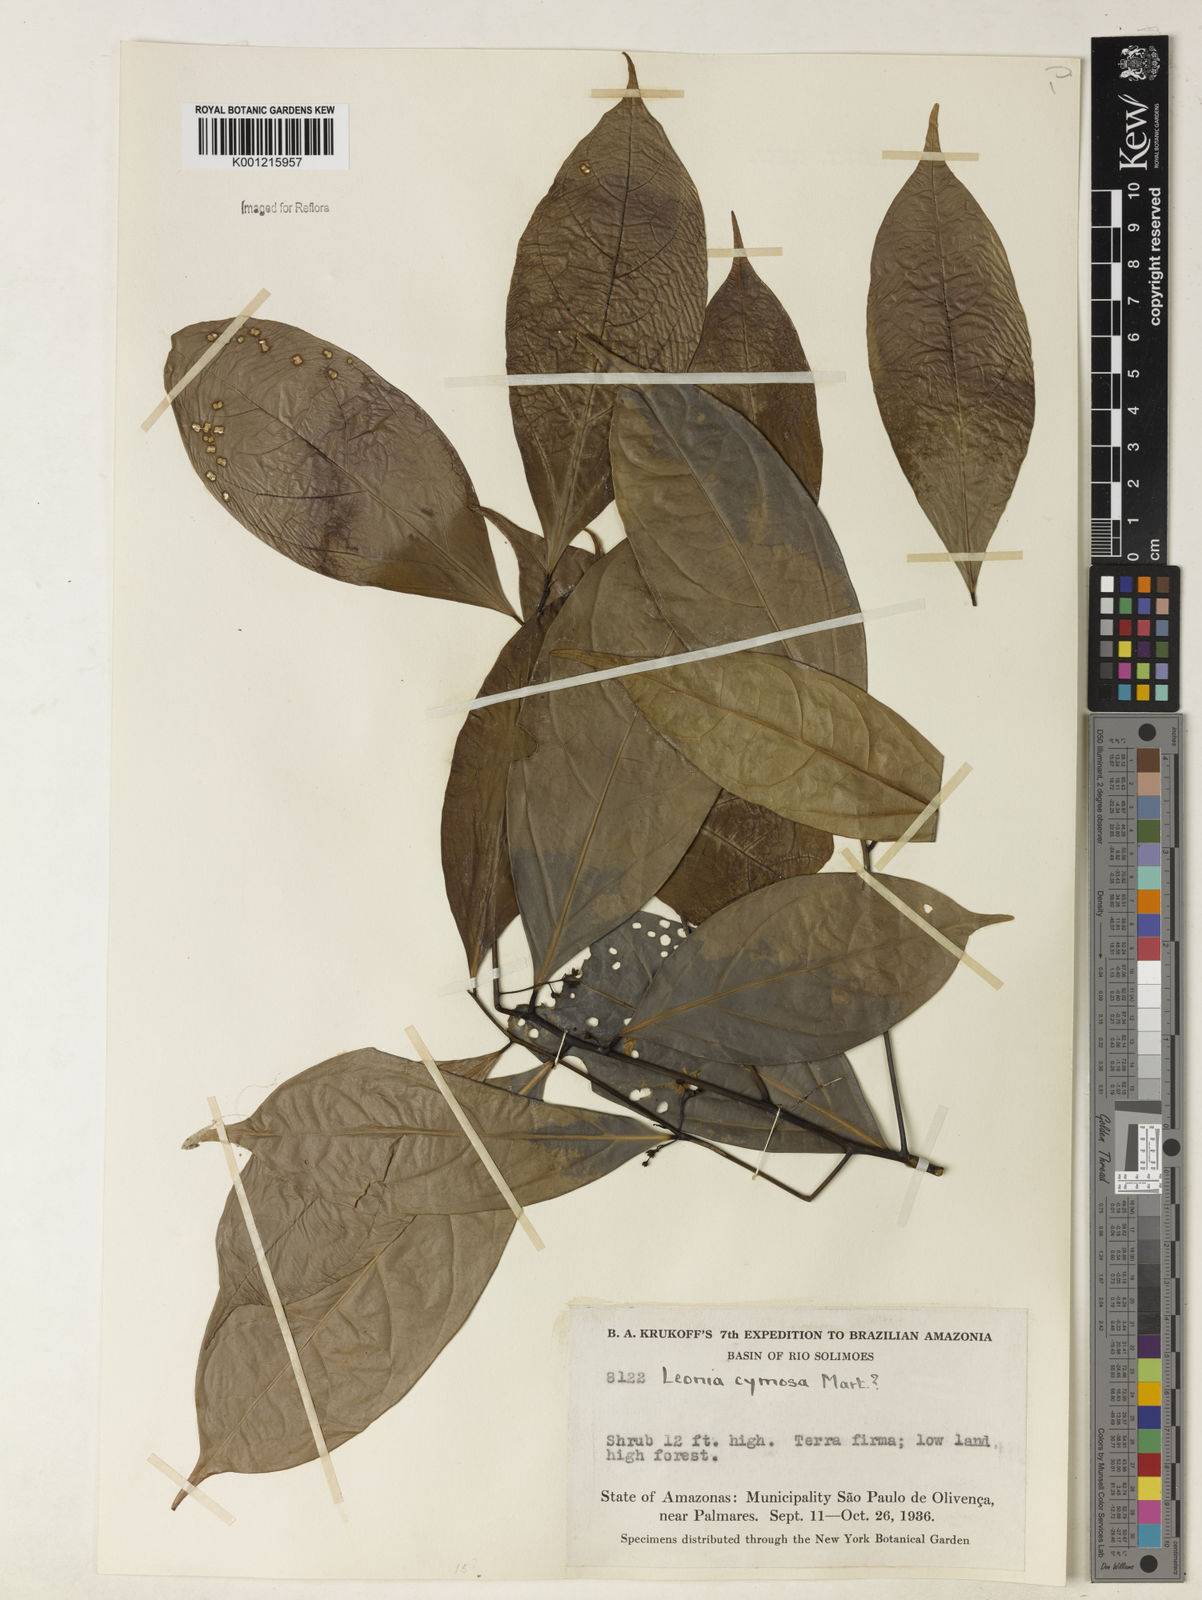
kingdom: Plantae
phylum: Tracheophyta
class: Magnoliopsida
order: Laurales
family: Lauraceae
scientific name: Lauraceae
